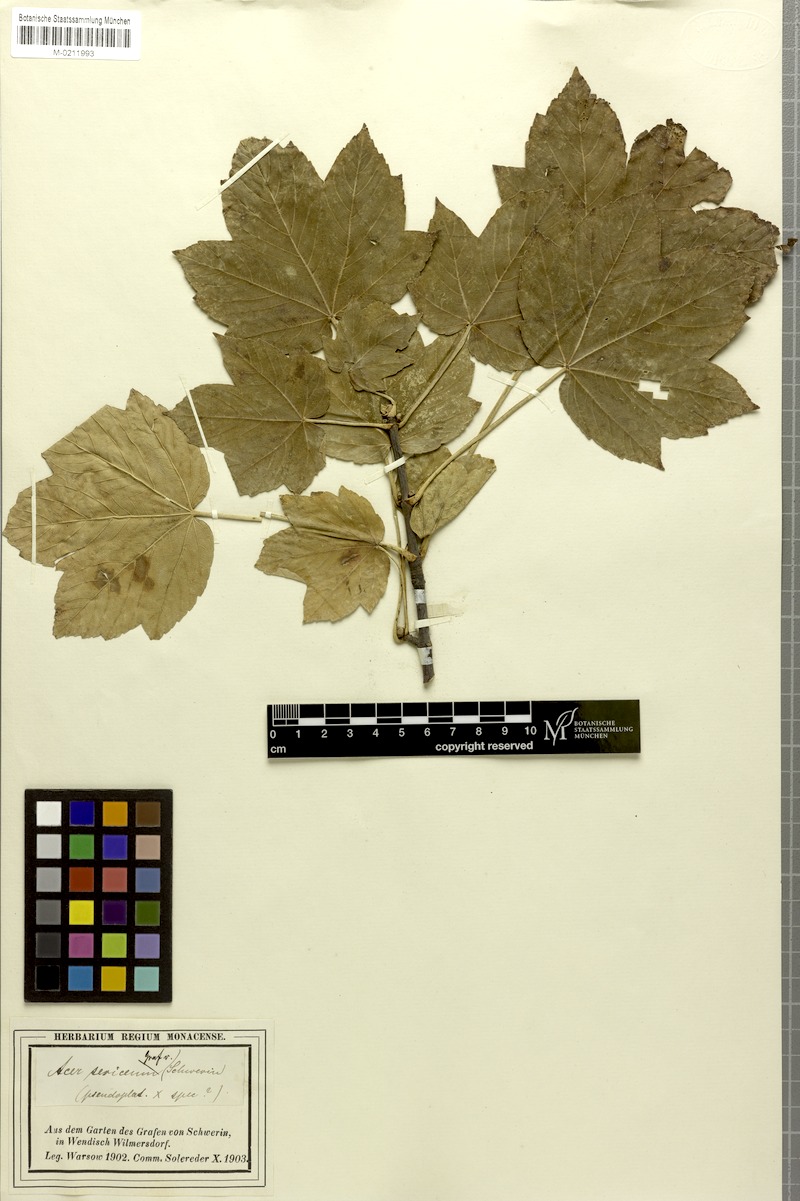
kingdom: Plantae
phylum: Tracheophyta
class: Magnoliopsida
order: Sapindales
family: Sapindaceae
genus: Acer
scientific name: Acer sericeum
